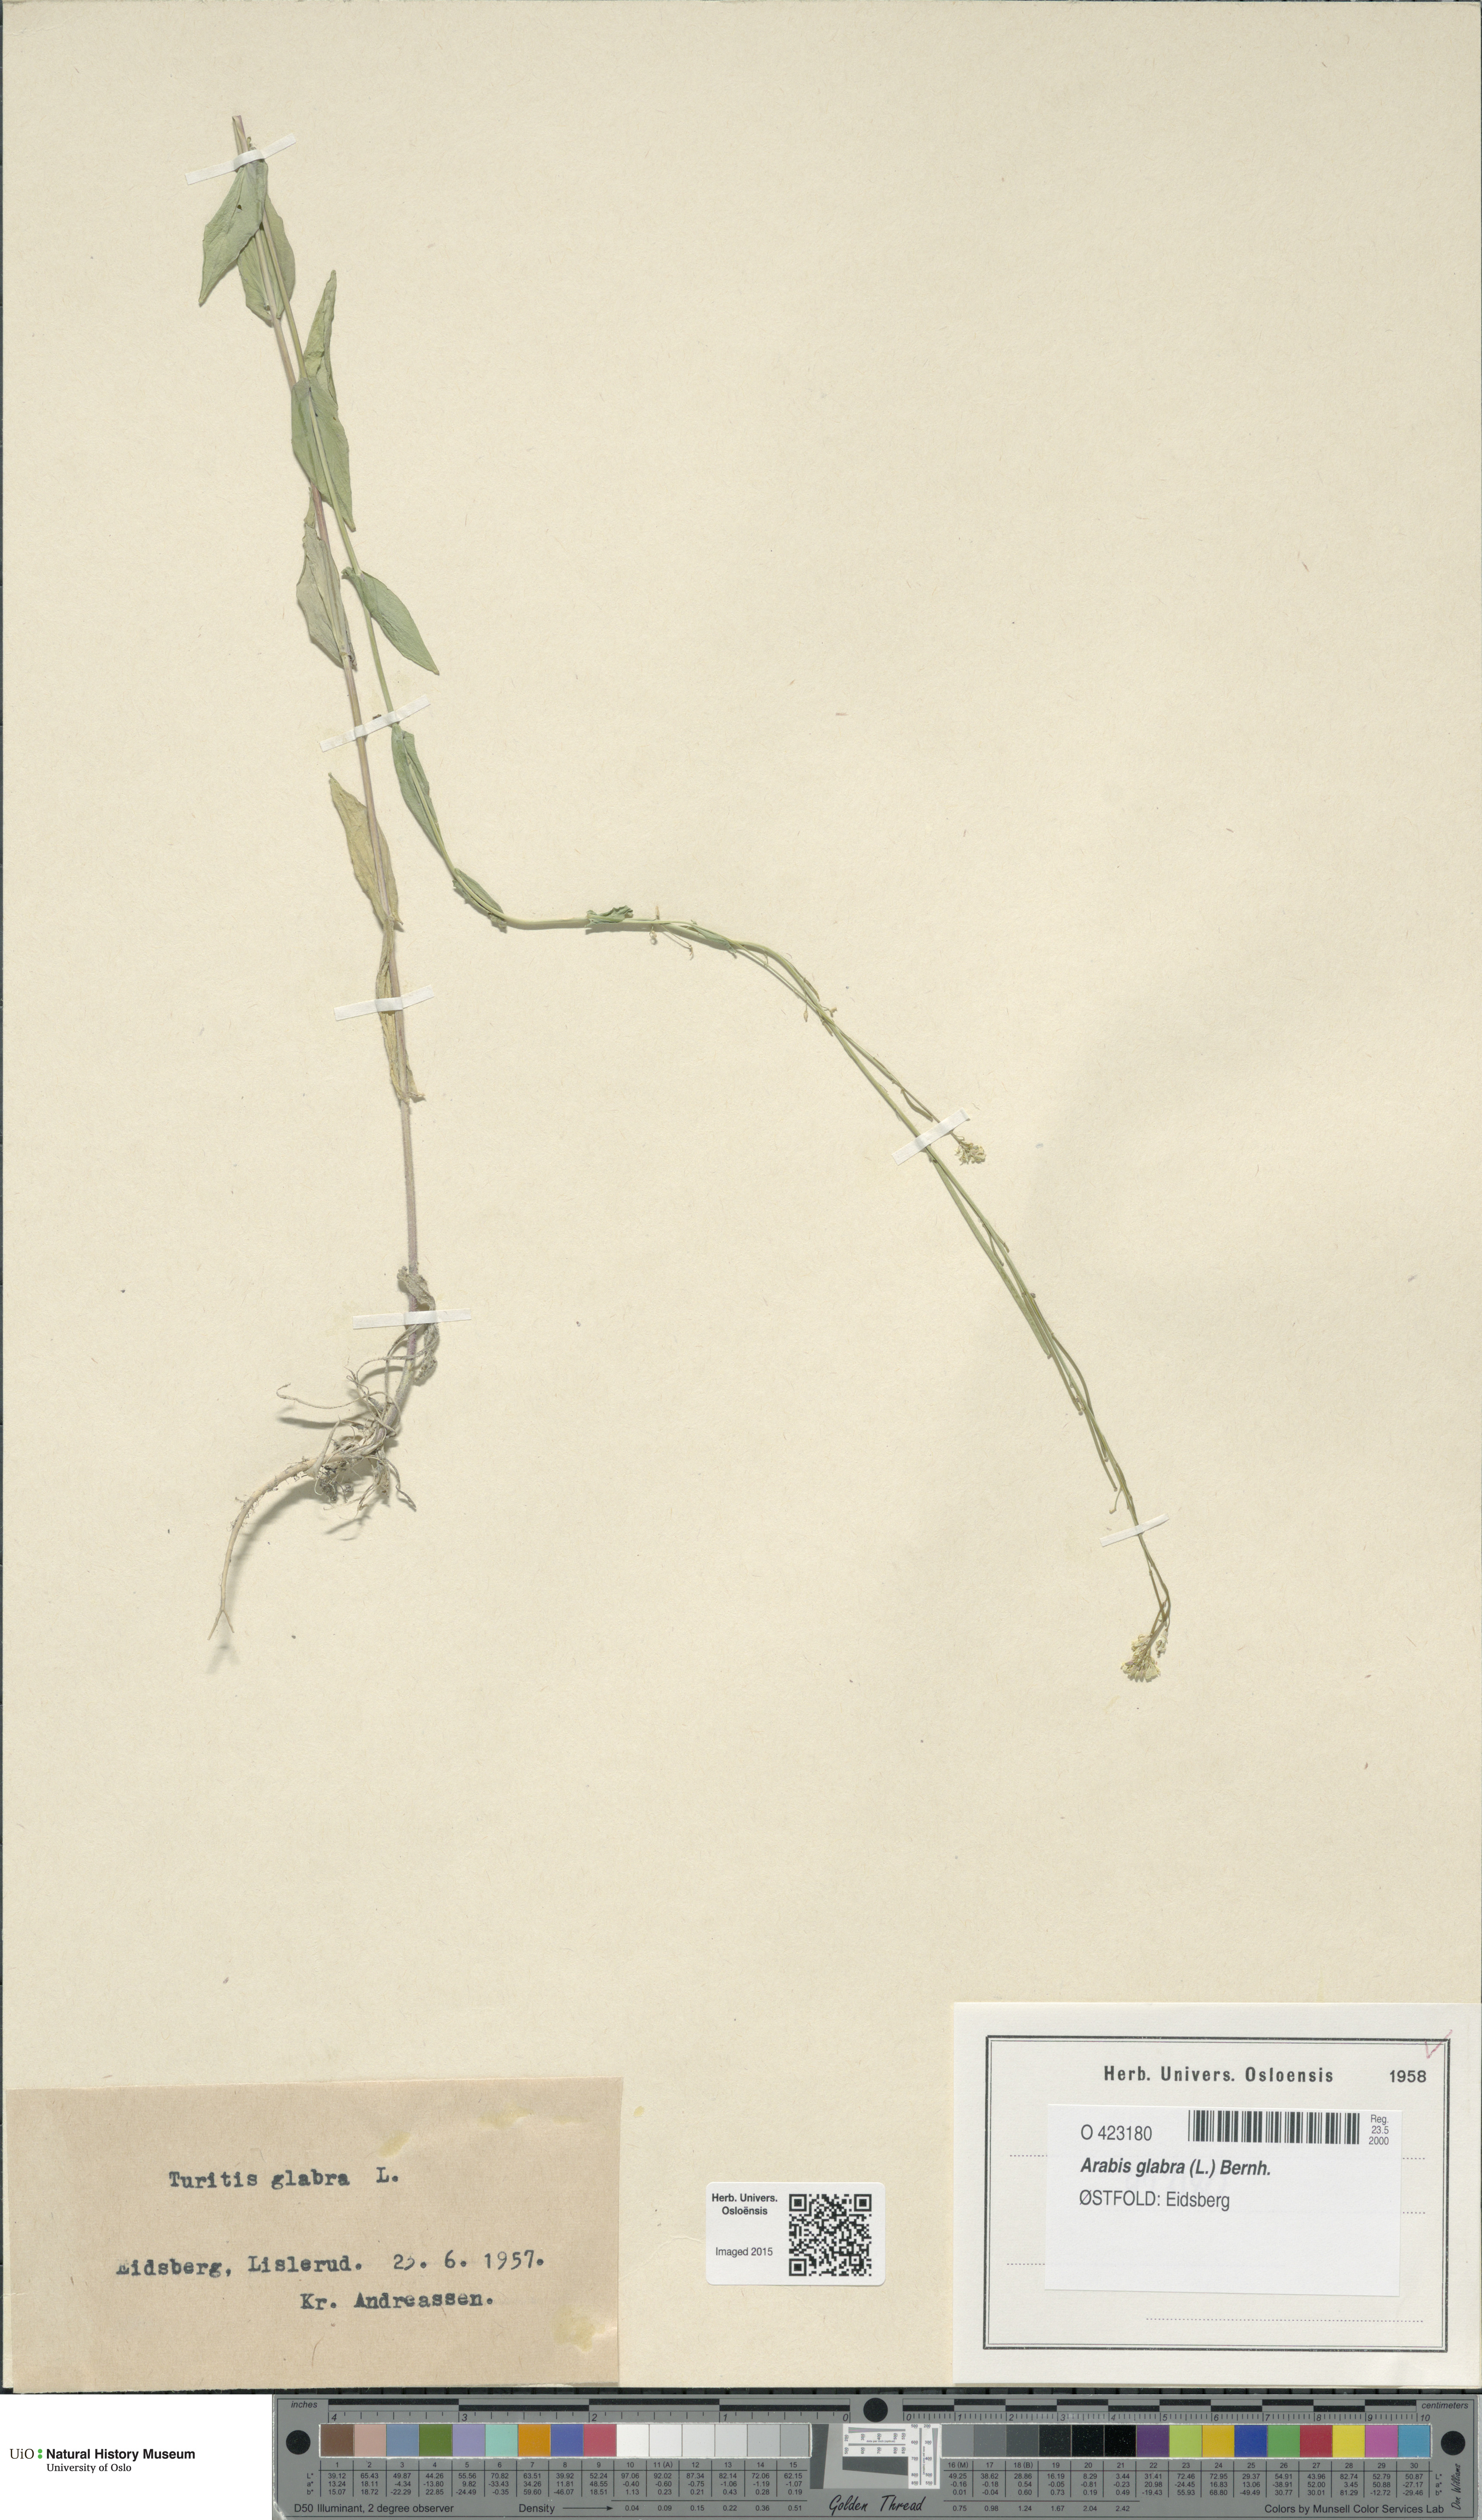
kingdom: Plantae
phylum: Tracheophyta
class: Magnoliopsida
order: Brassicales
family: Brassicaceae
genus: Turritis
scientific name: Turritis glabra
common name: Tower rockcress
